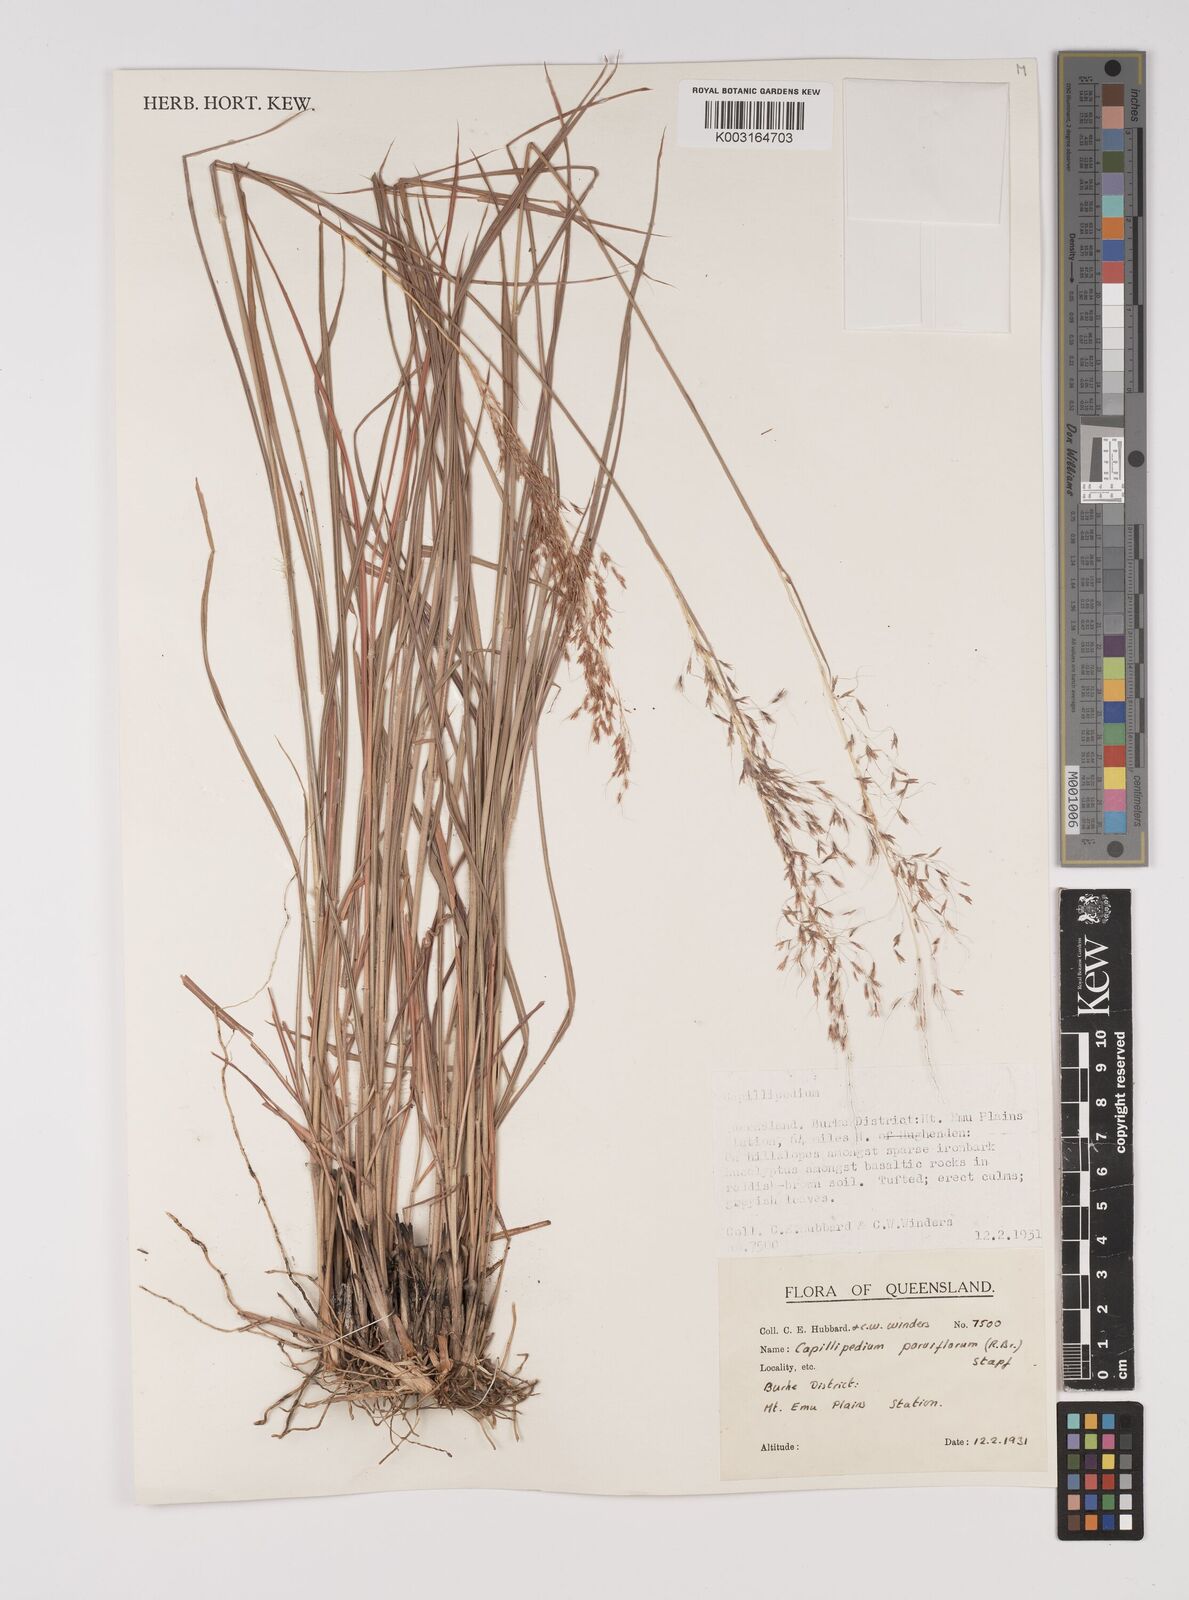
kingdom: Plantae
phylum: Tracheophyta
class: Liliopsida
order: Poales
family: Poaceae
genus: Capillipedium
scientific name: Capillipedium parviflorum
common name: Golden-beard
